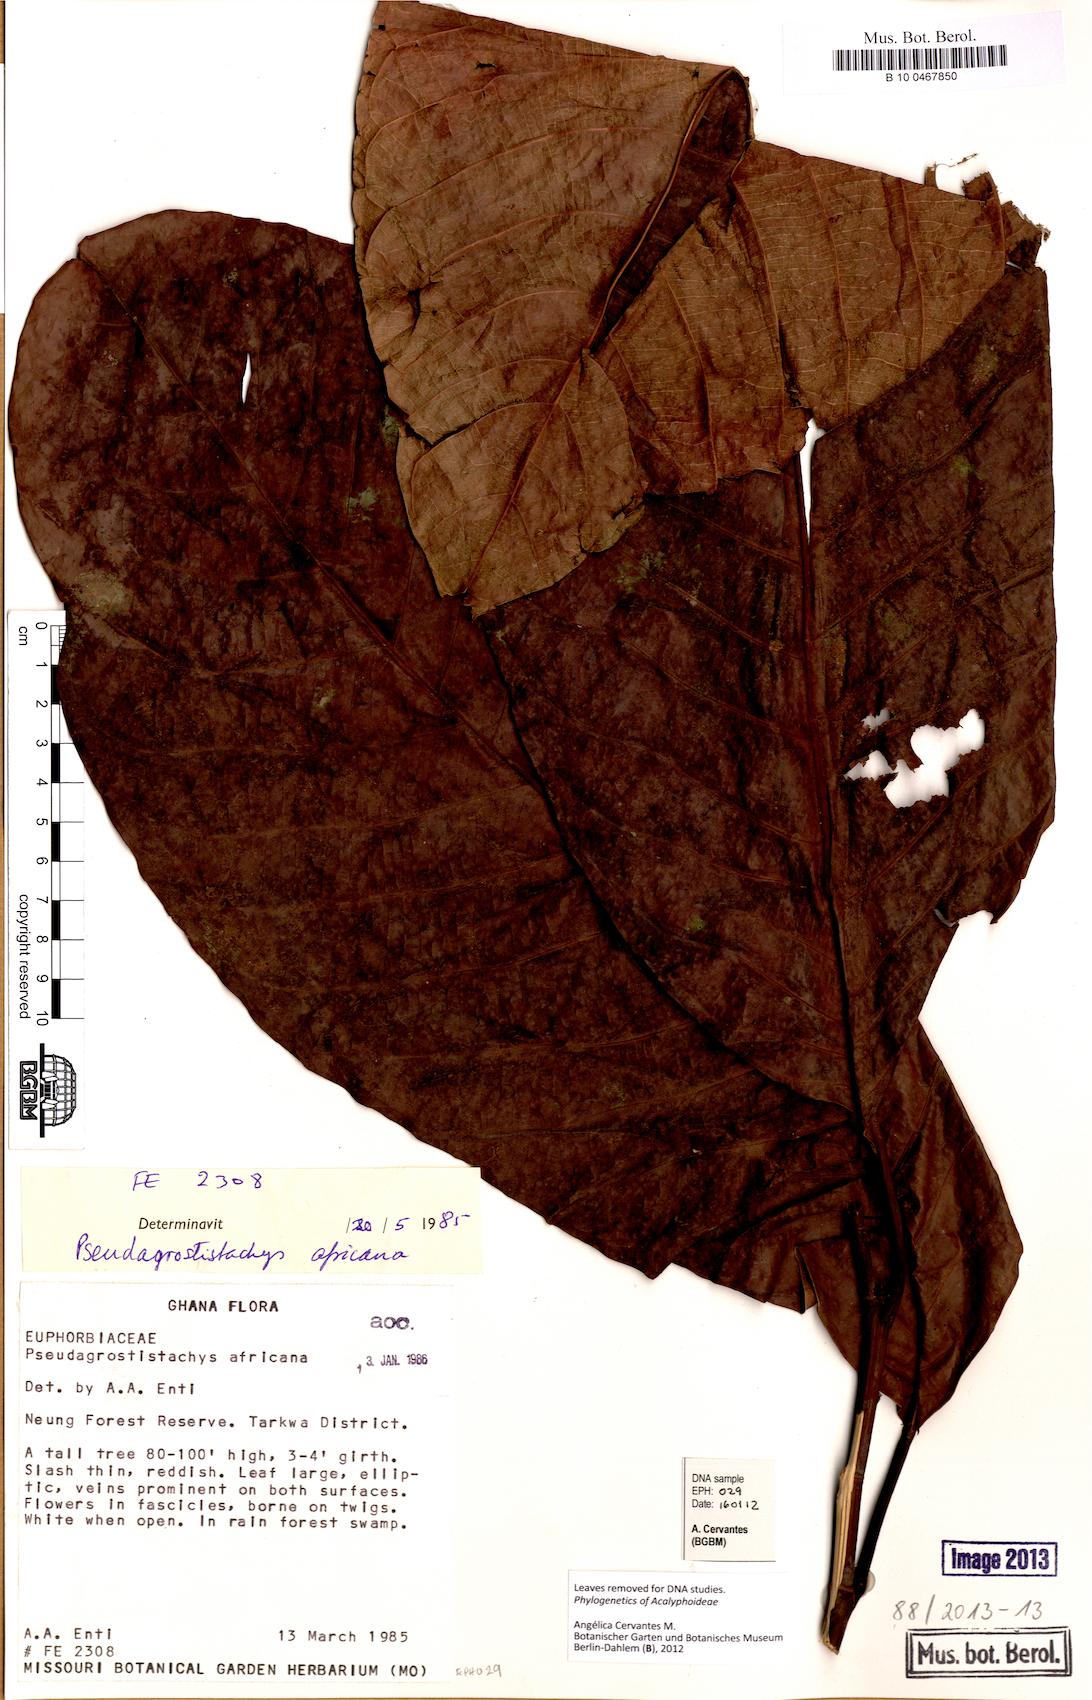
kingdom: Plantae
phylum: Tracheophyta
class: Magnoliopsida
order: Malpighiales
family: Euphorbiaceae
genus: Pseudagrostistachys
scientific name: Pseudagrostistachys africana
